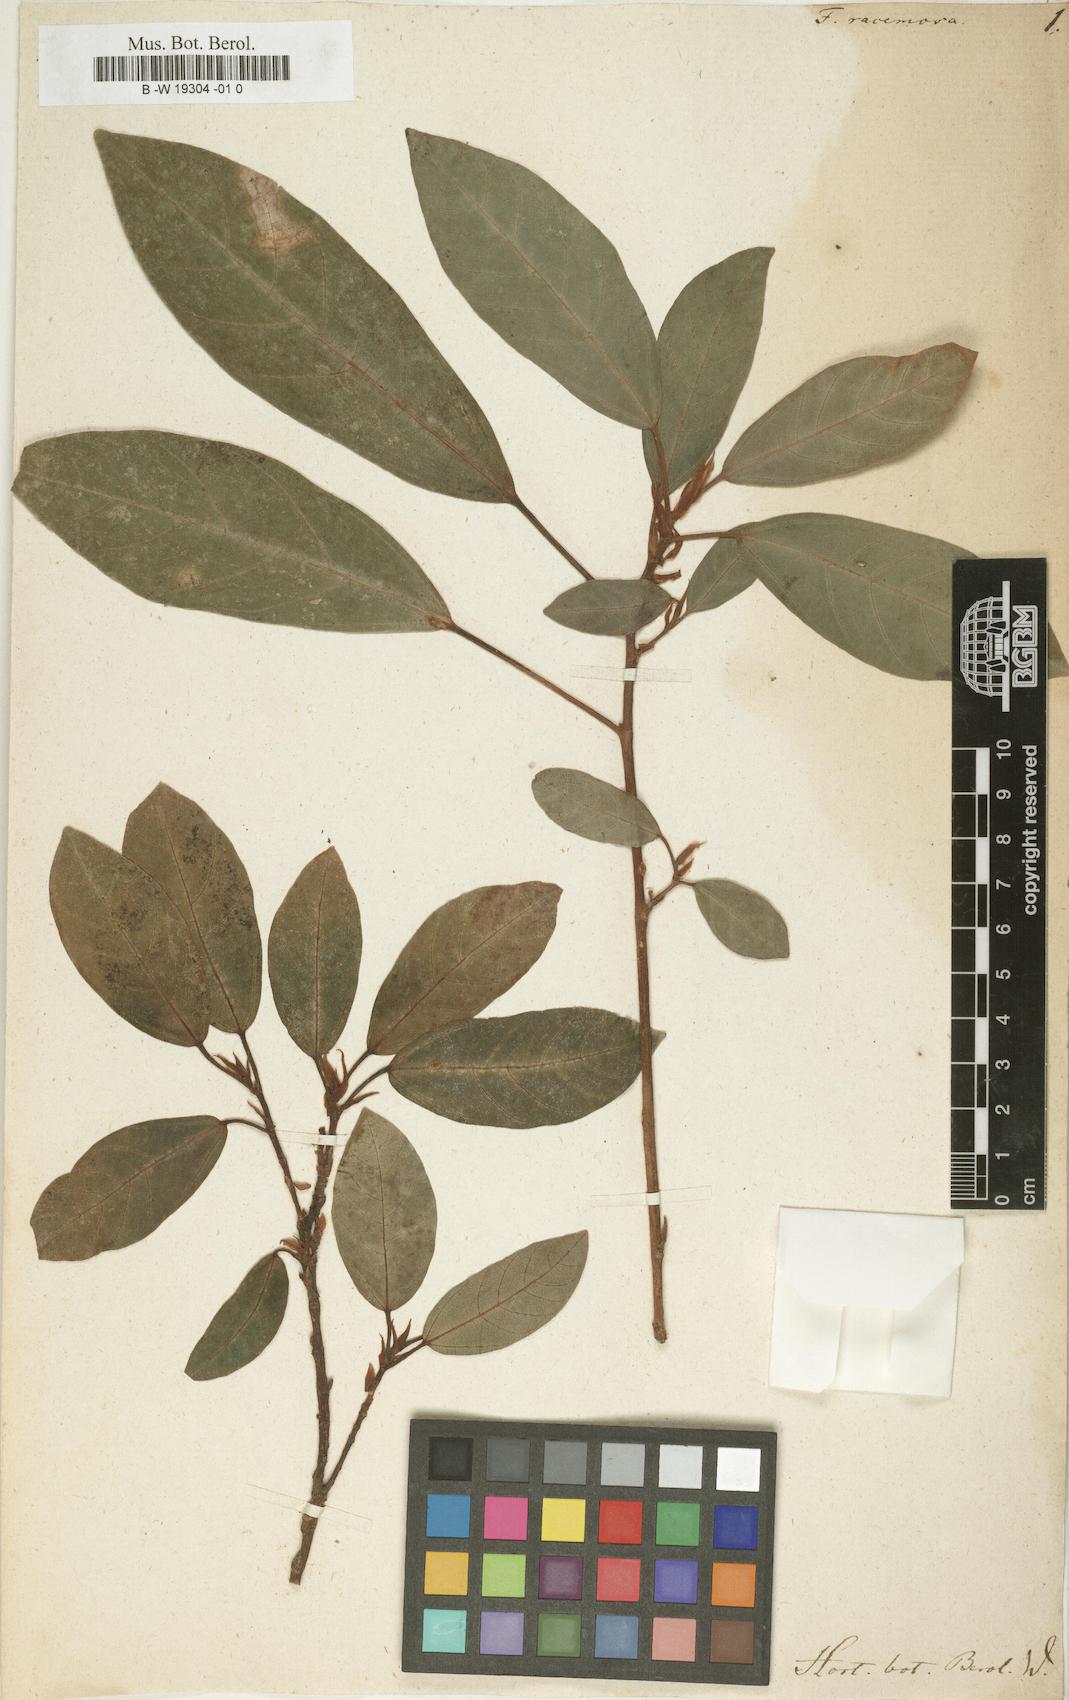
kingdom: Plantae
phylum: Tracheophyta
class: Magnoliopsida
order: Rosales
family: Moraceae
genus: Ficus
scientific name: Ficus racemosa
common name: Cluster fig
